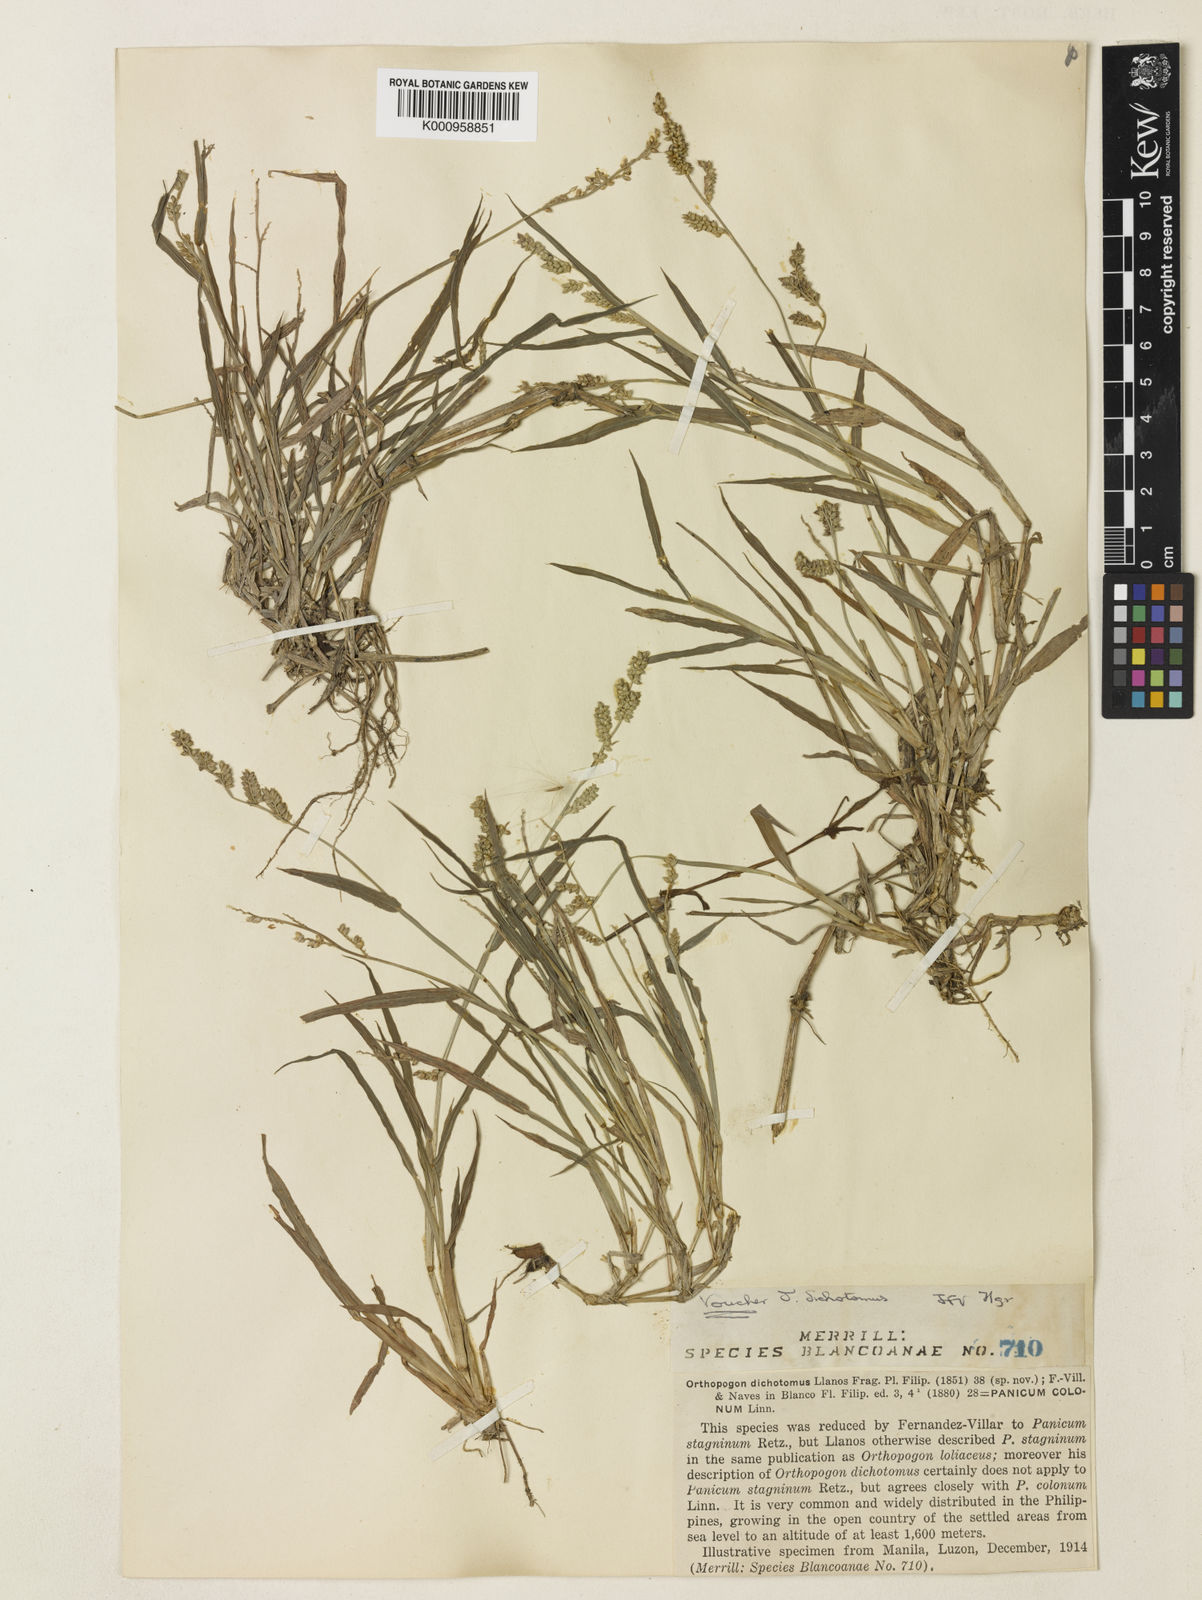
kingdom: Plantae
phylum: Tracheophyta
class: Liliopsida
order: Poales
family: Poaceae
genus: Echinochloa
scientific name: Echinochloa colonum
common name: Jungle rice
